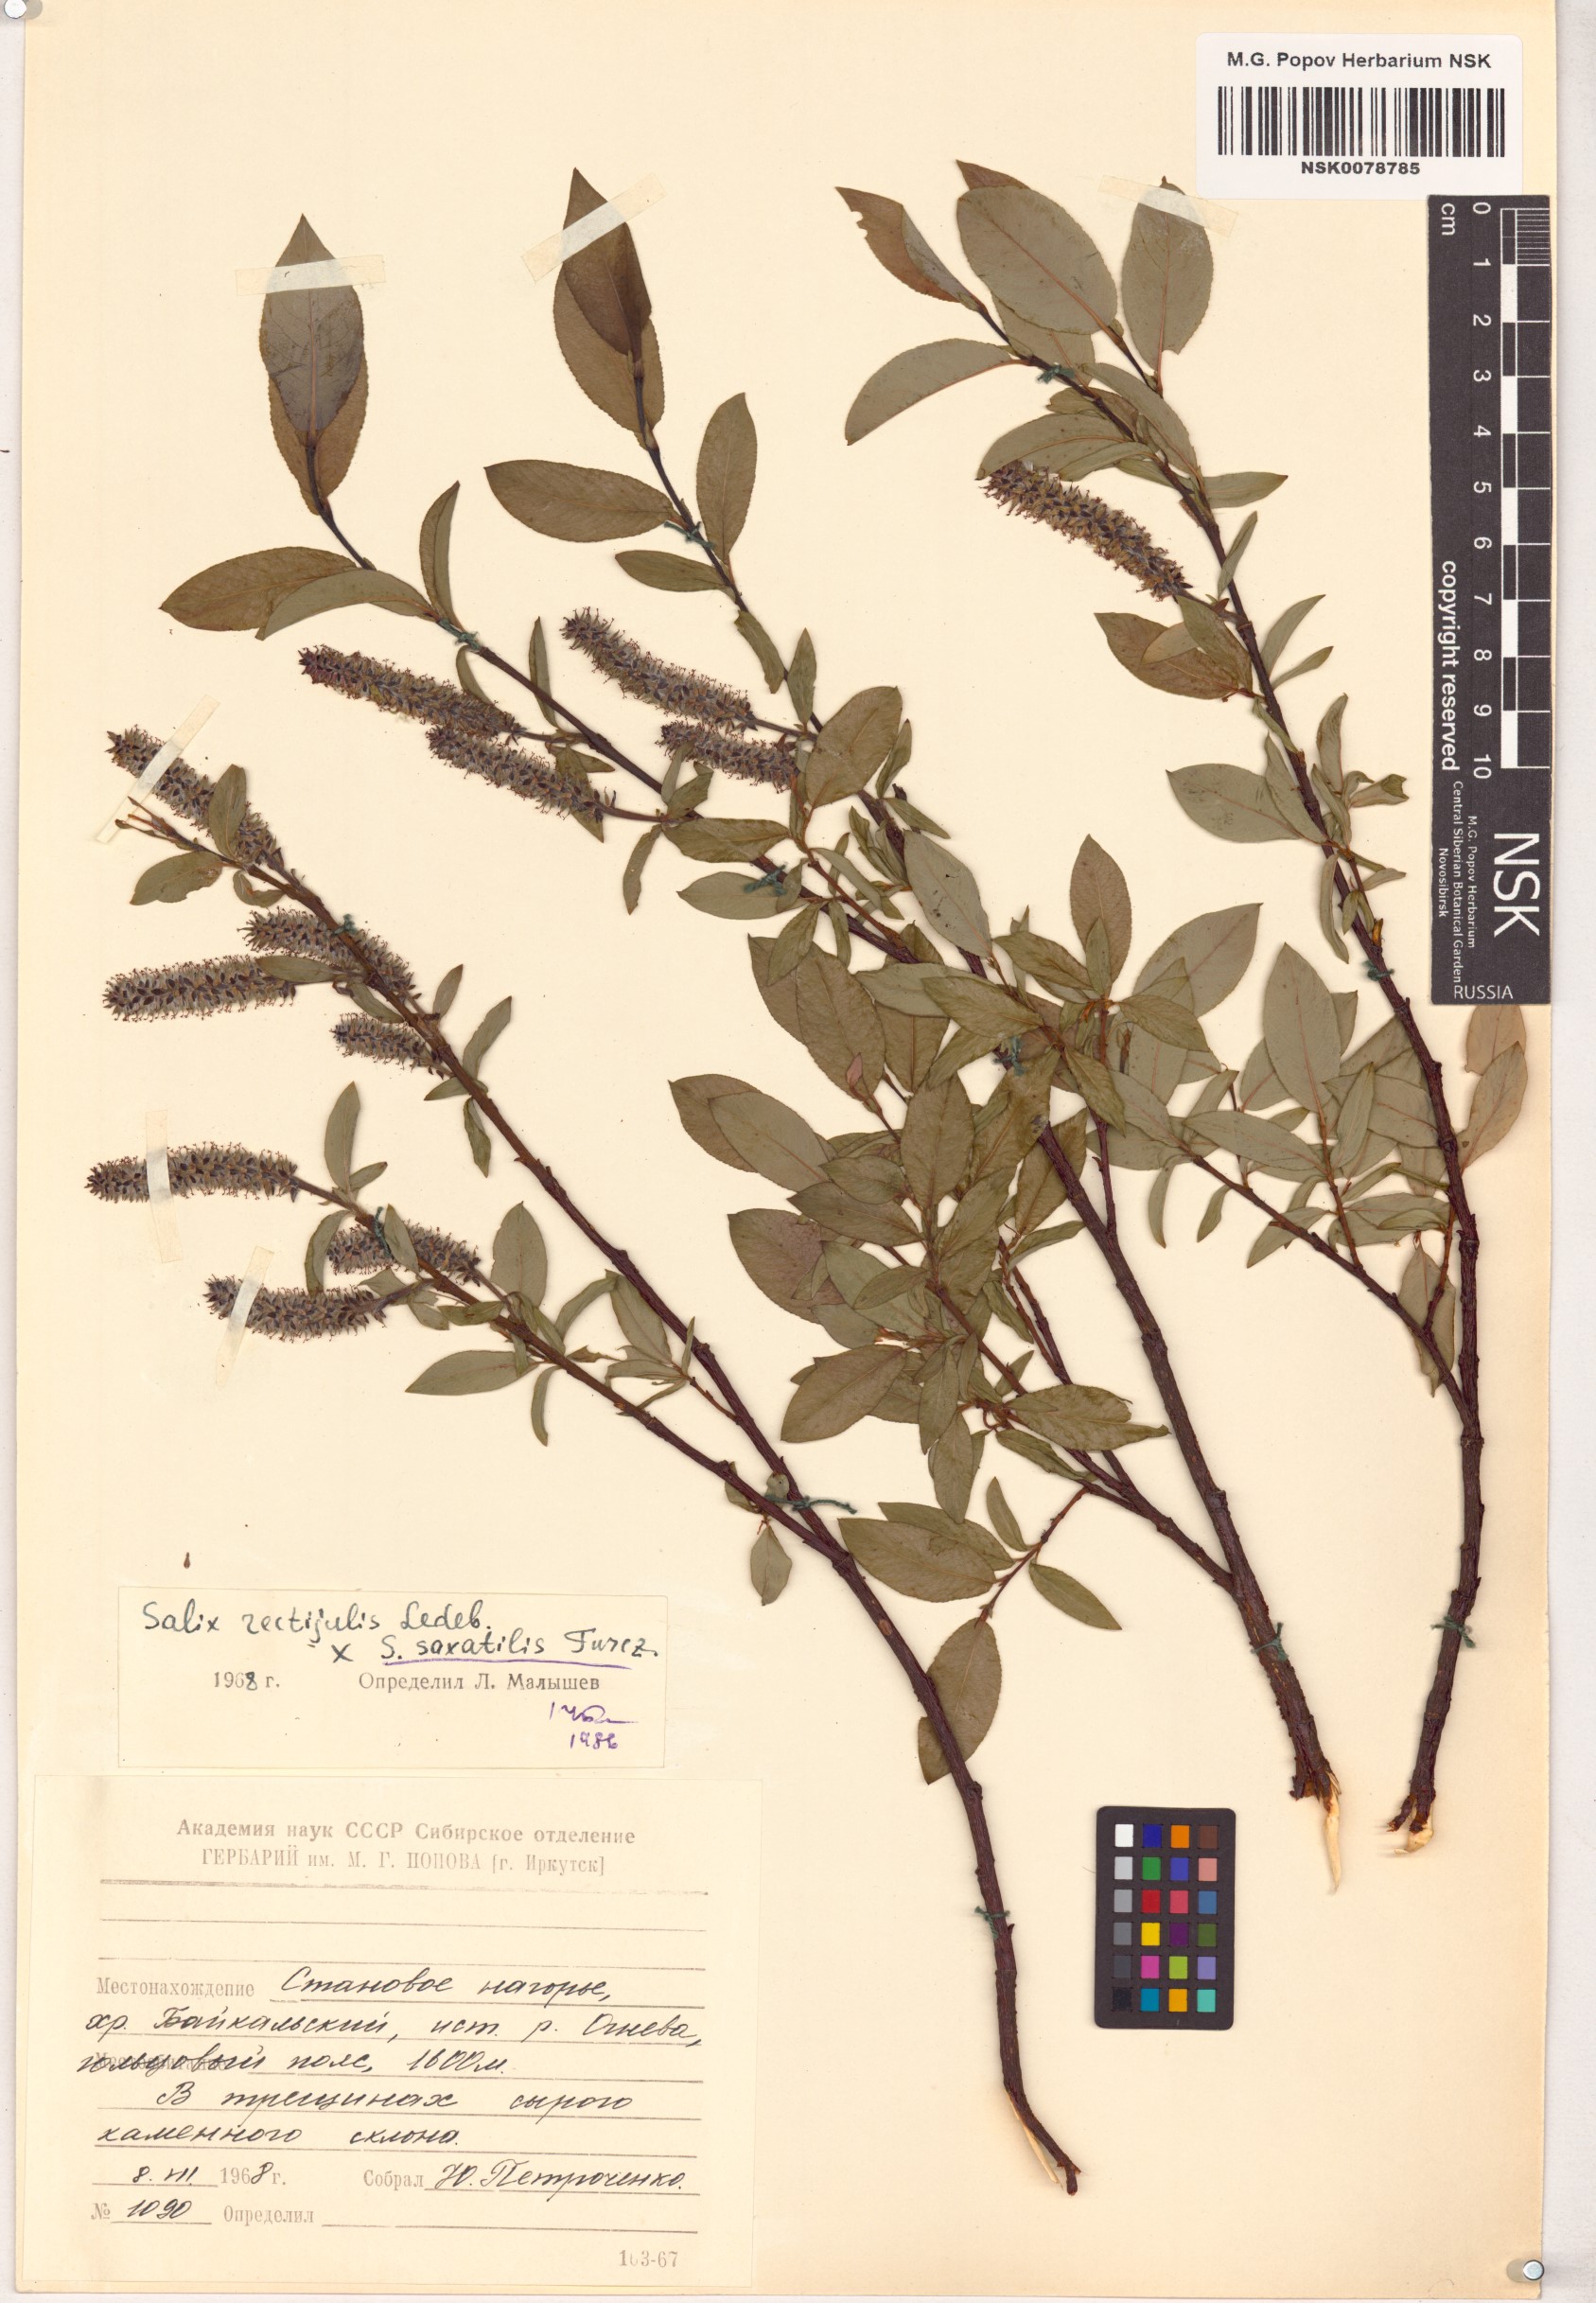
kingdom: Plantae
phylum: Tracheophyta
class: Magnoliopsida
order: Malpighiales
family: Salicaceae
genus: Salix
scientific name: Salix
